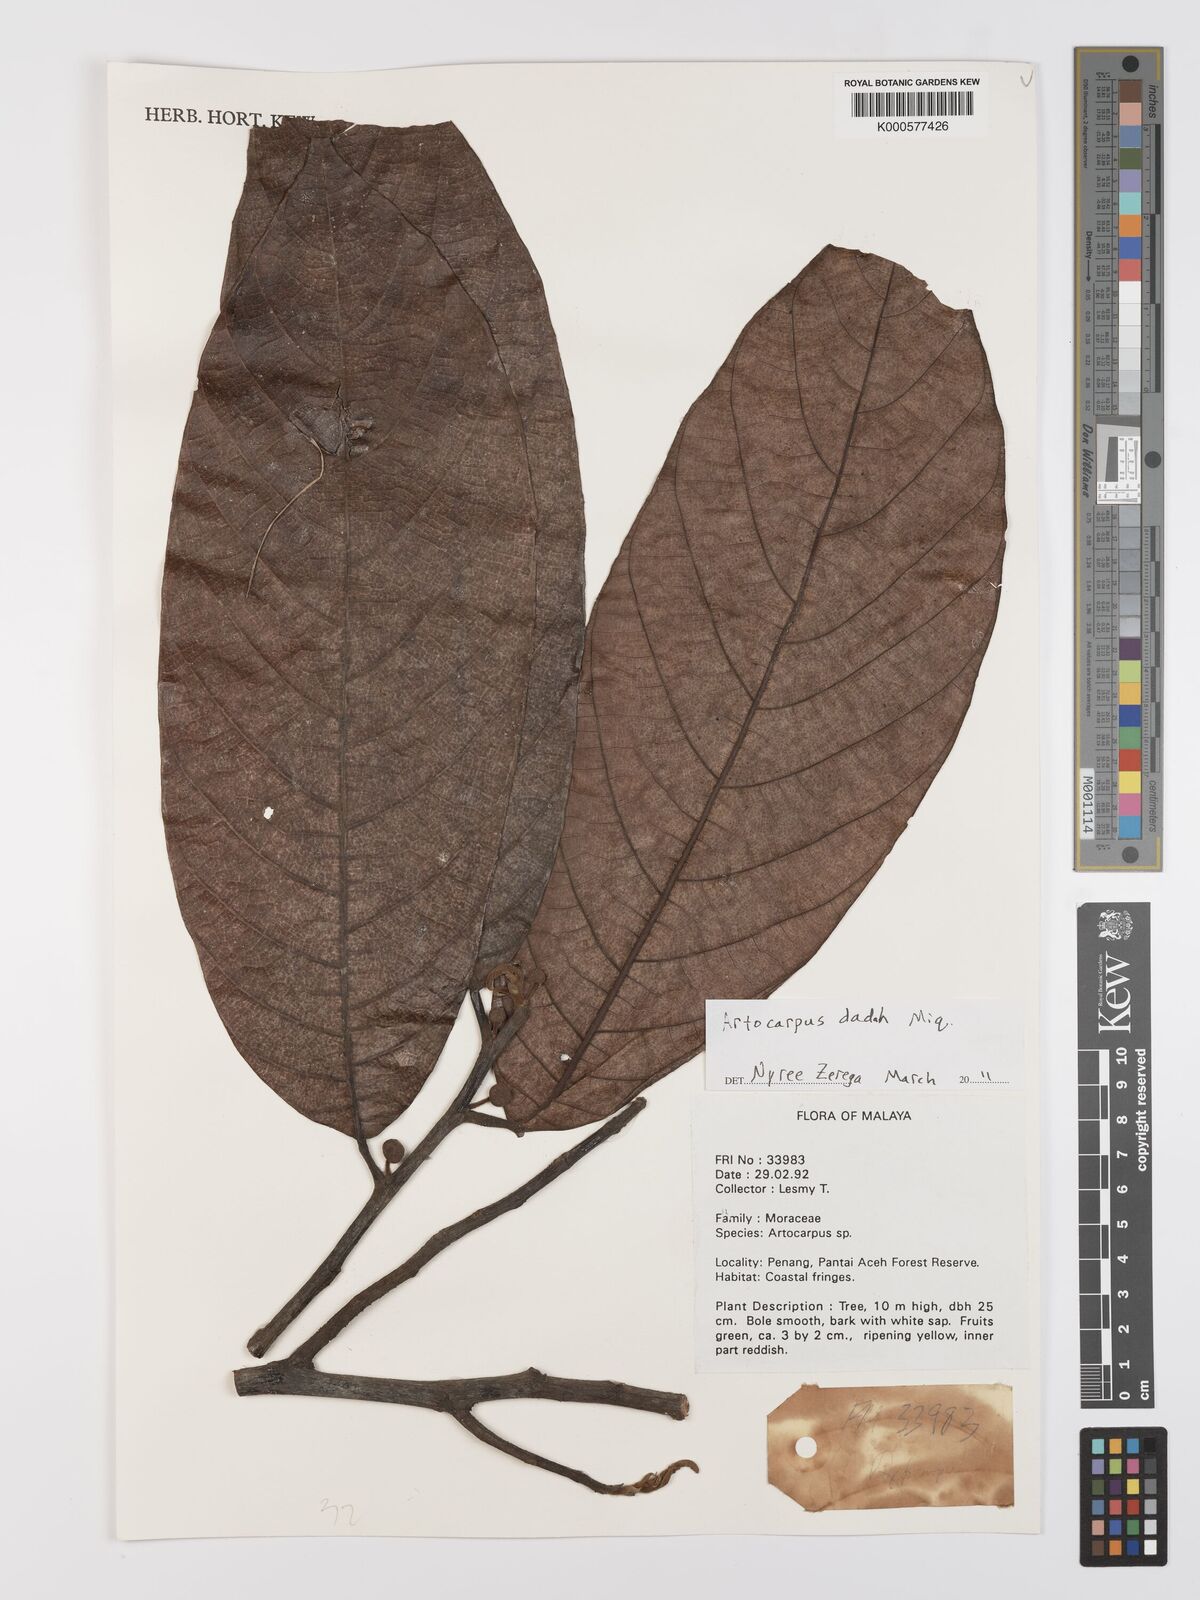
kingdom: Plantae
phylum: Tracheophyta
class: Magnoliopsida
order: Rosales
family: Moraceae
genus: Artocarpus
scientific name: Artocarpus lacucha
